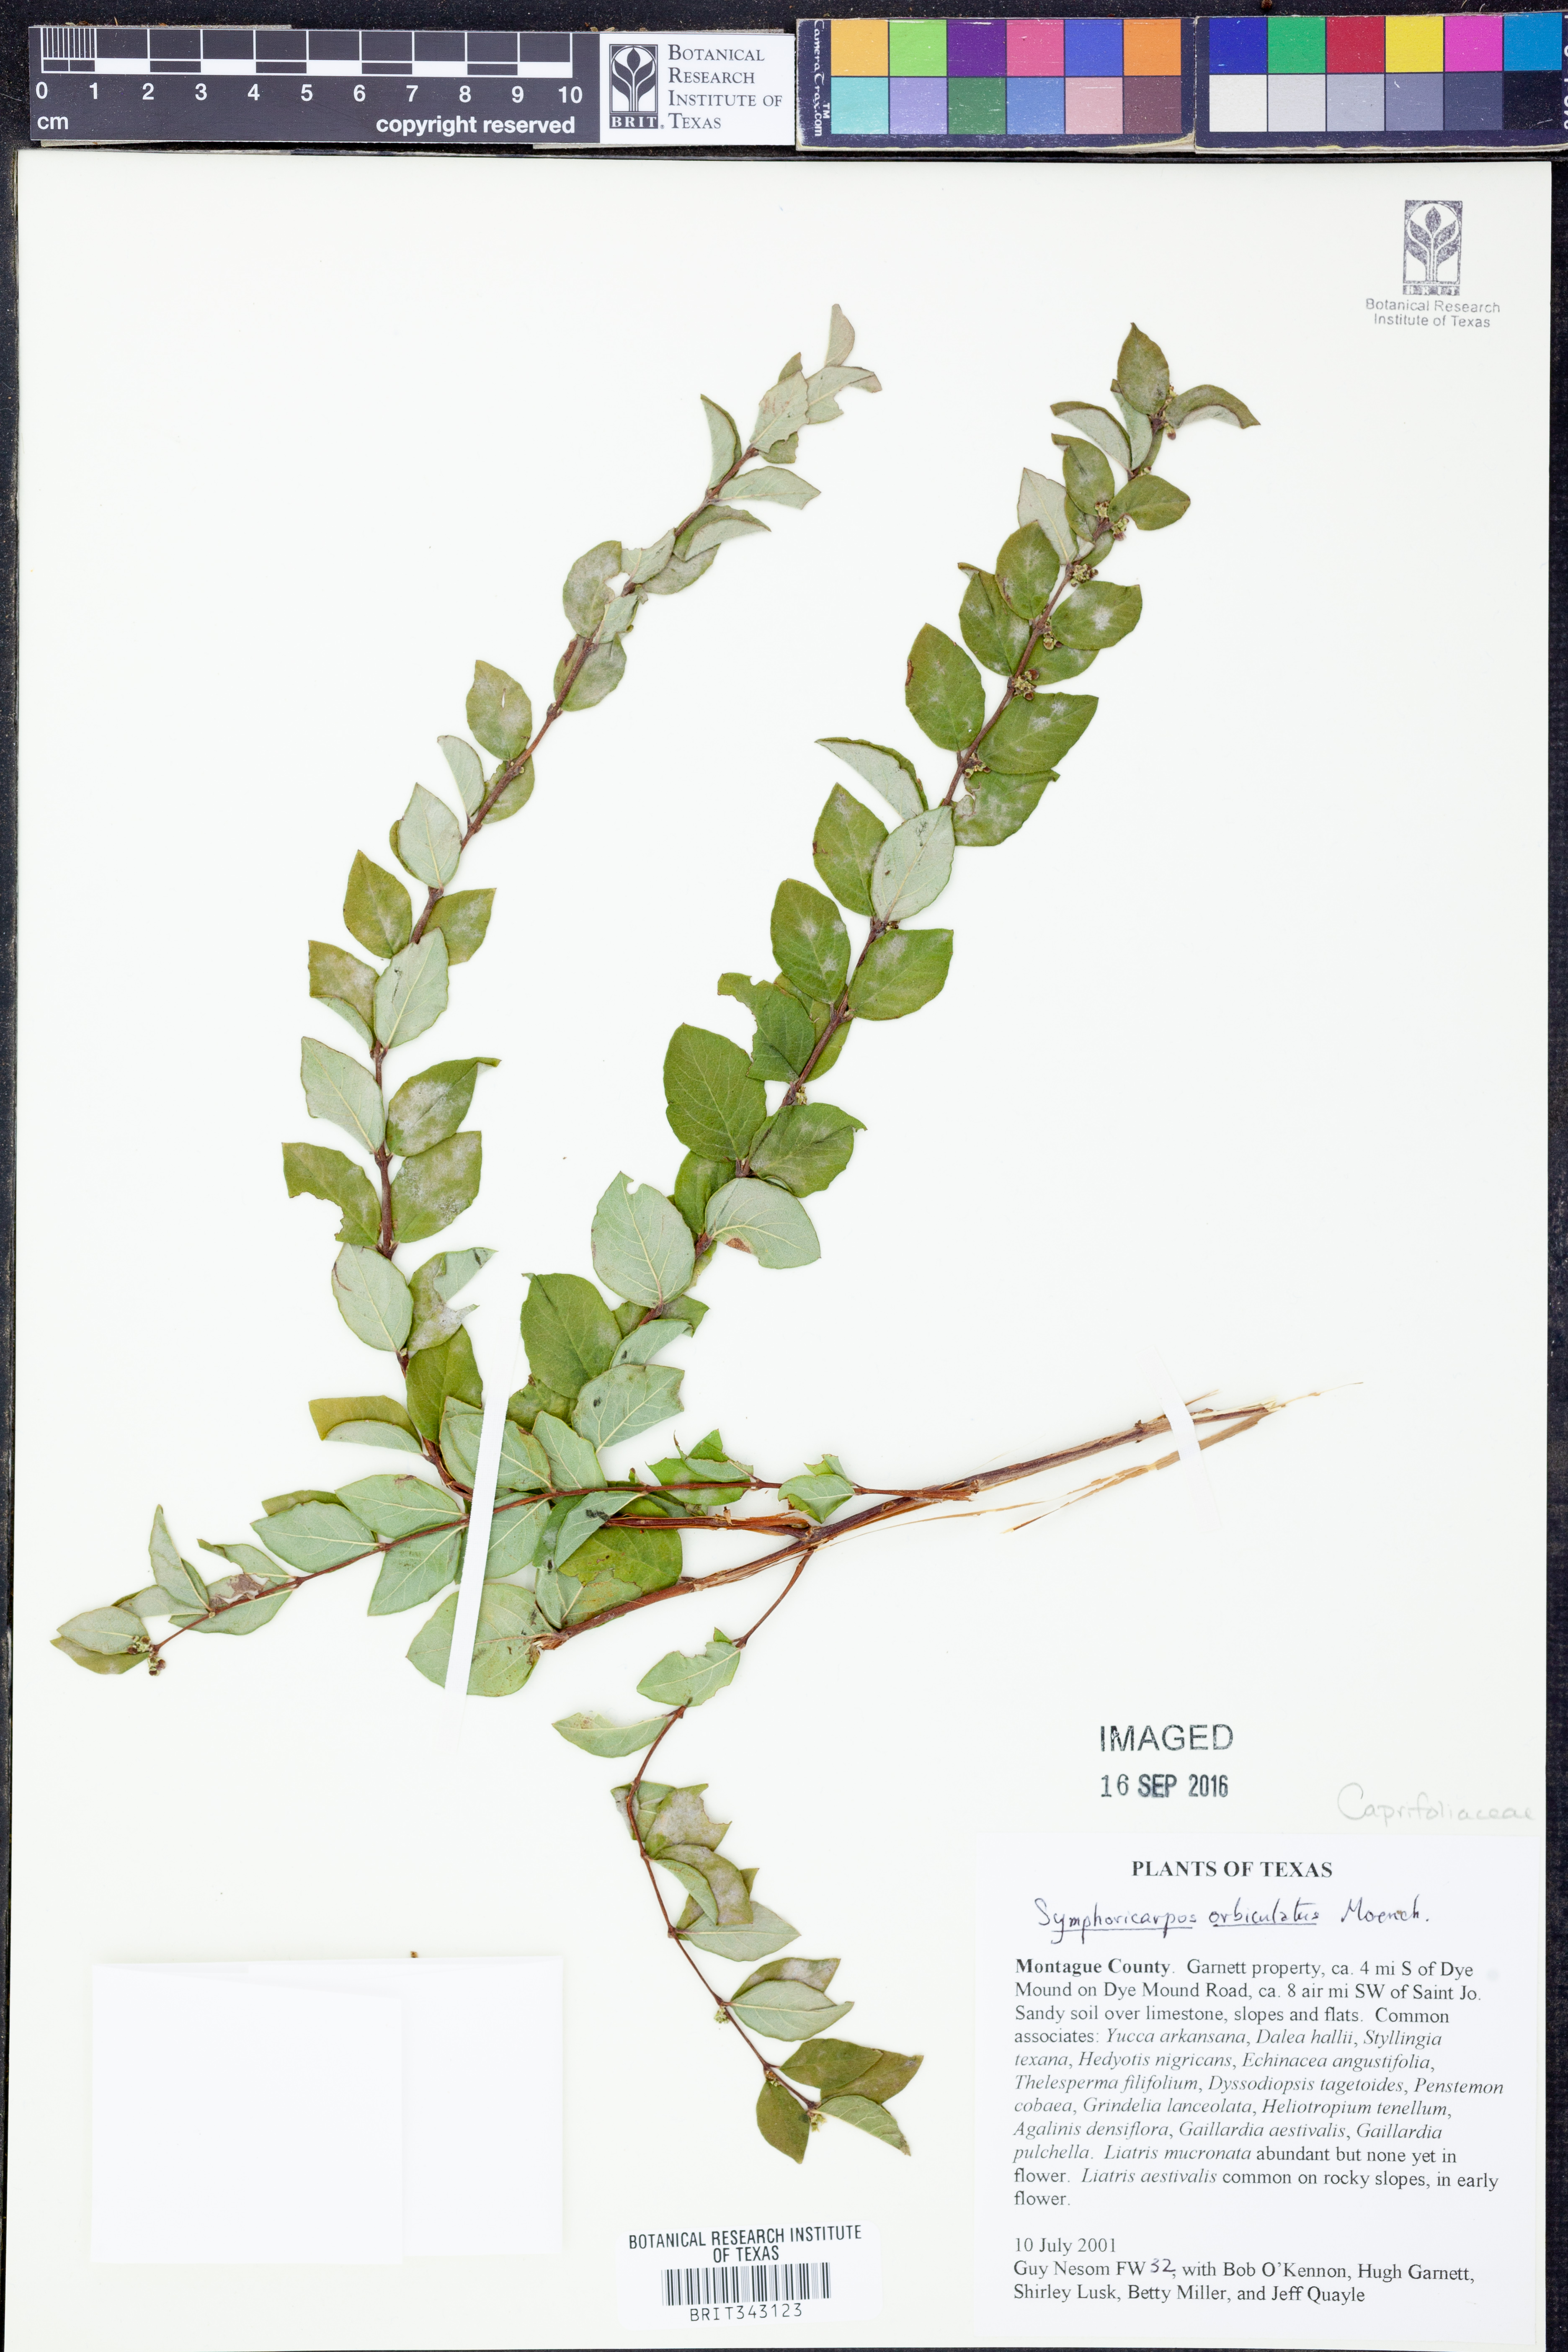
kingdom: Plantae
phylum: Tracheophyta
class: Magnoliopsida
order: Dipsacales
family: Caprifoliaceae
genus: Symphoricarpos
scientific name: Symphoricarpos orbiculatus
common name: Coralberry
